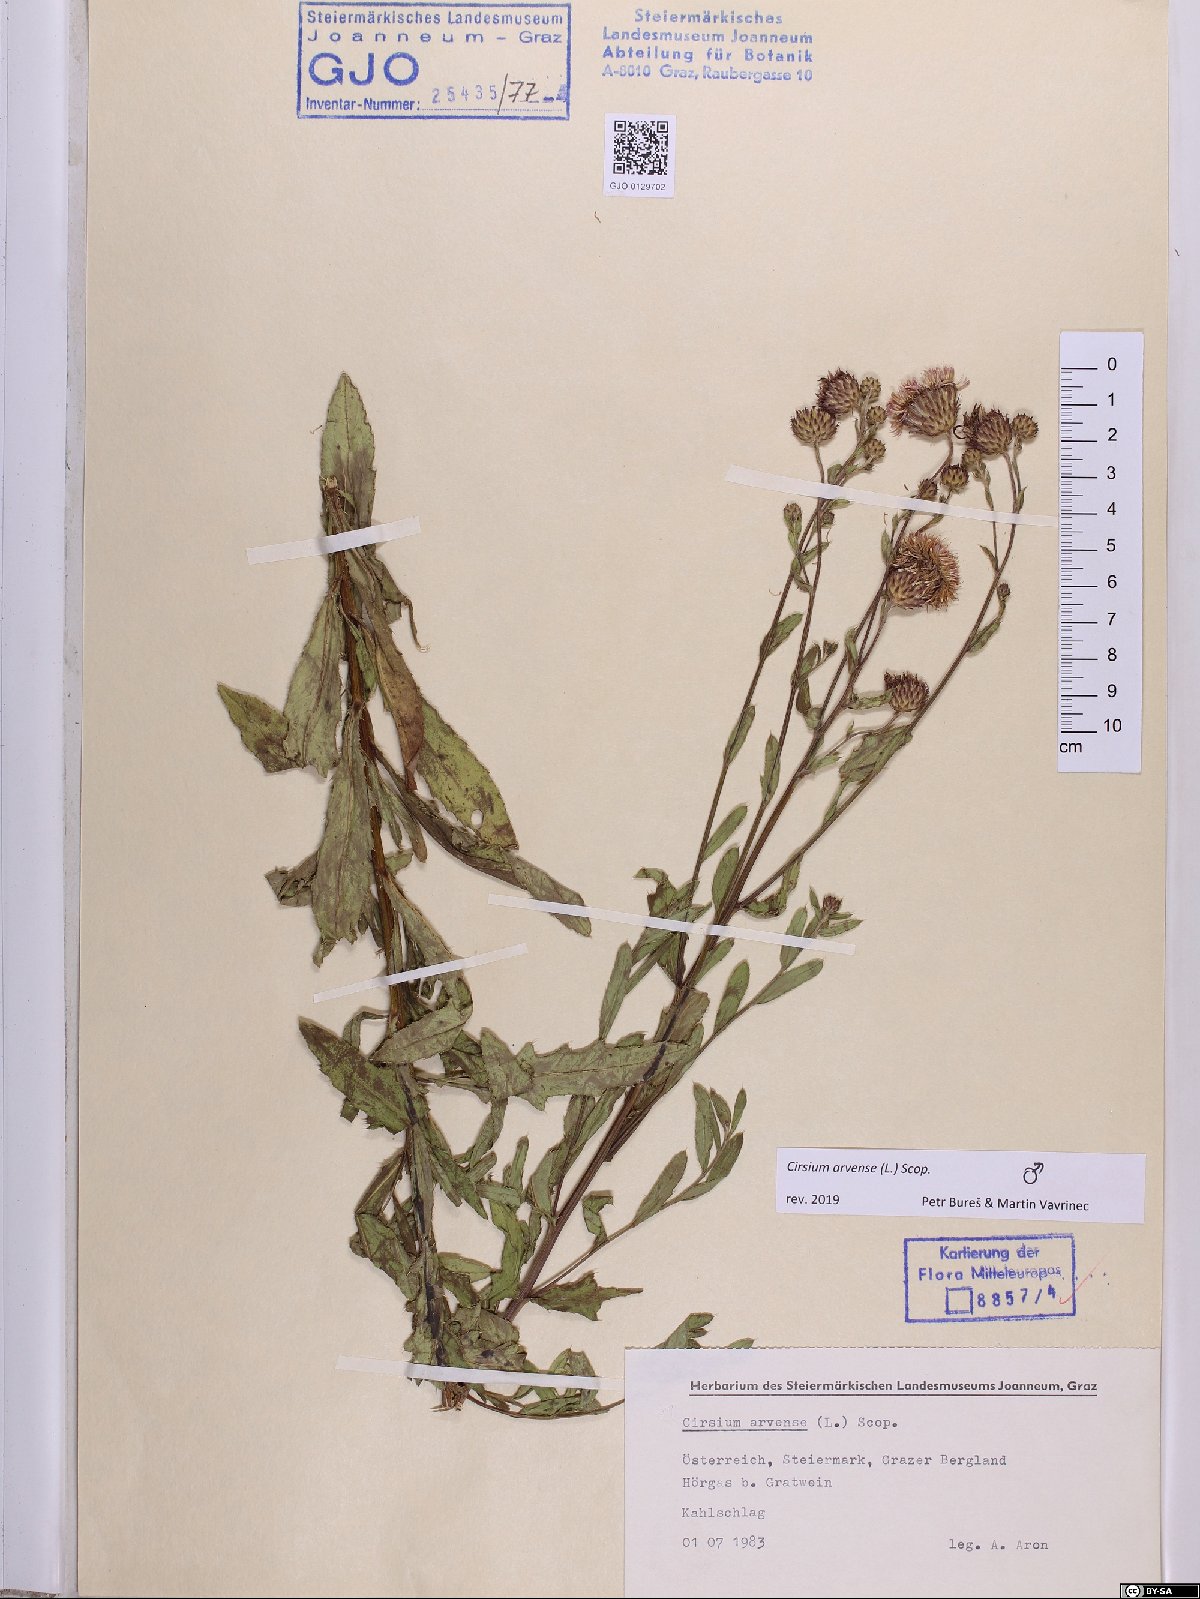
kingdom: Plantae
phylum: Tracheophyta
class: Magnoliopsida
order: Asterales
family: Asteraceae
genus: Cirsium
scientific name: Cirsium arvense
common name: Creeping thistle
